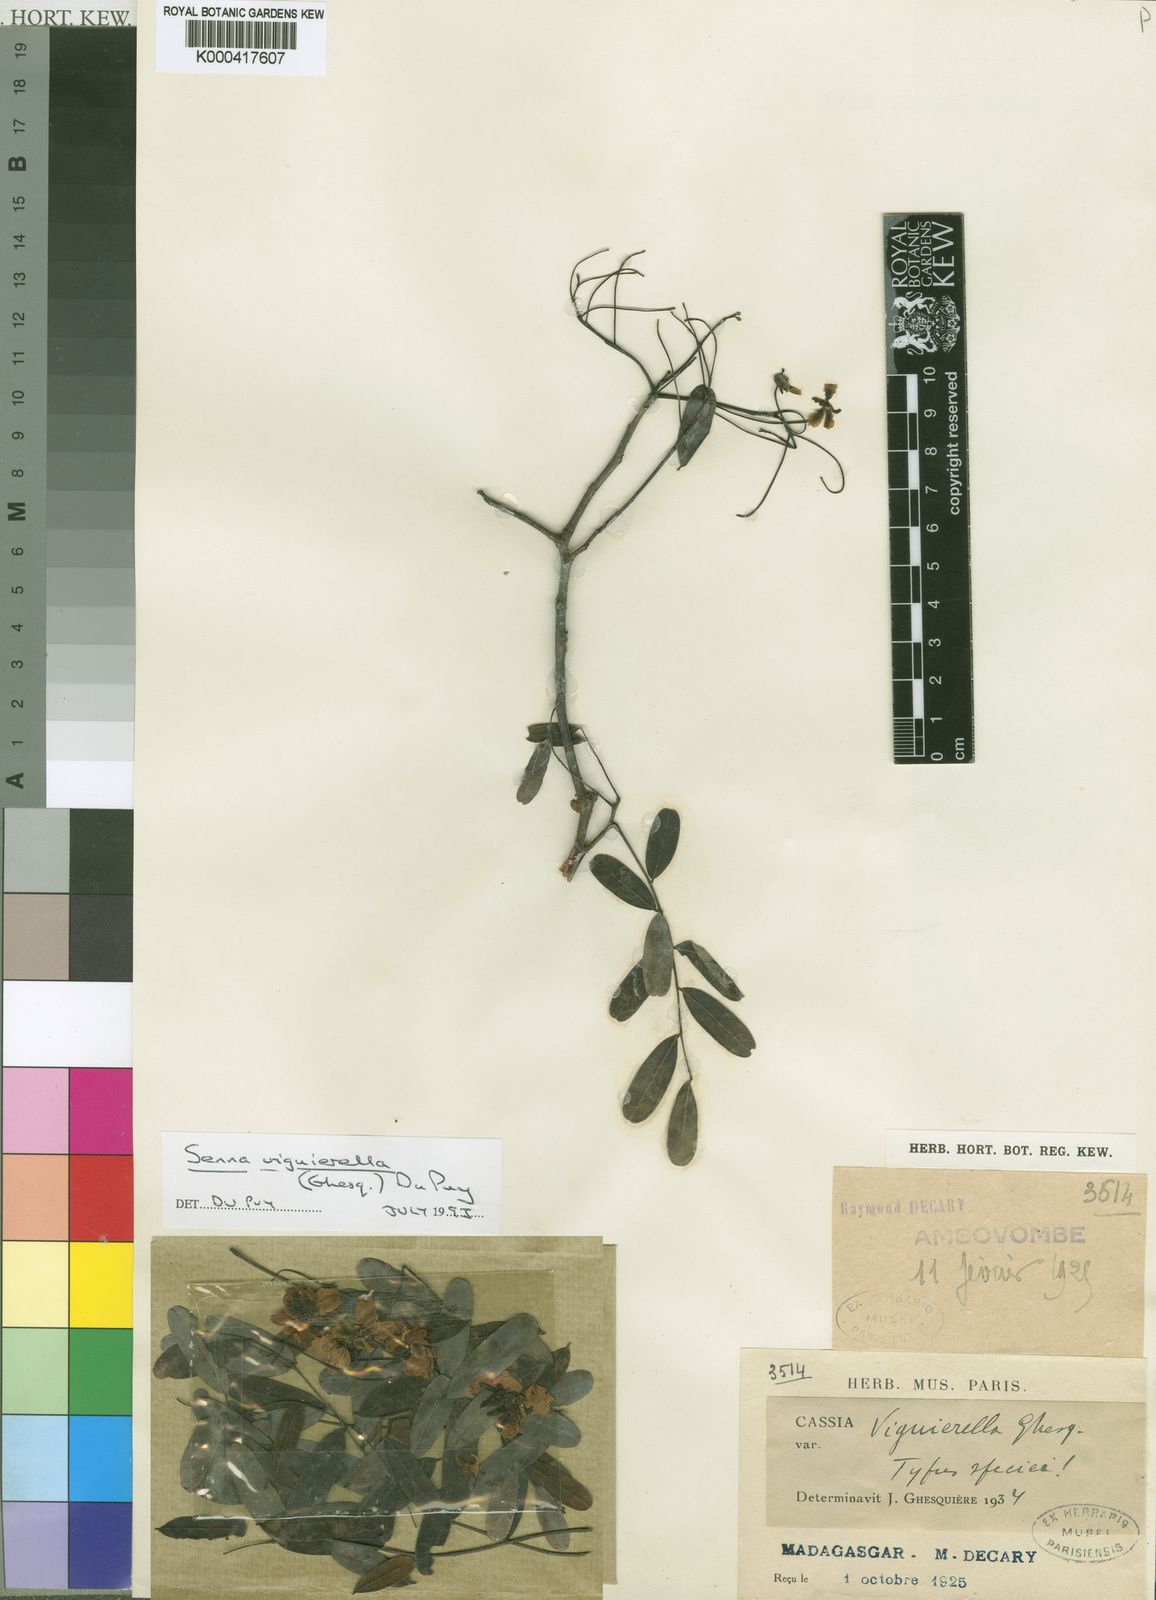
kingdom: Plantae
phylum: Tracheophyta
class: Magnoliopsida
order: Fabales
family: Fabaceae
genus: Senna
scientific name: Senna viguierella
